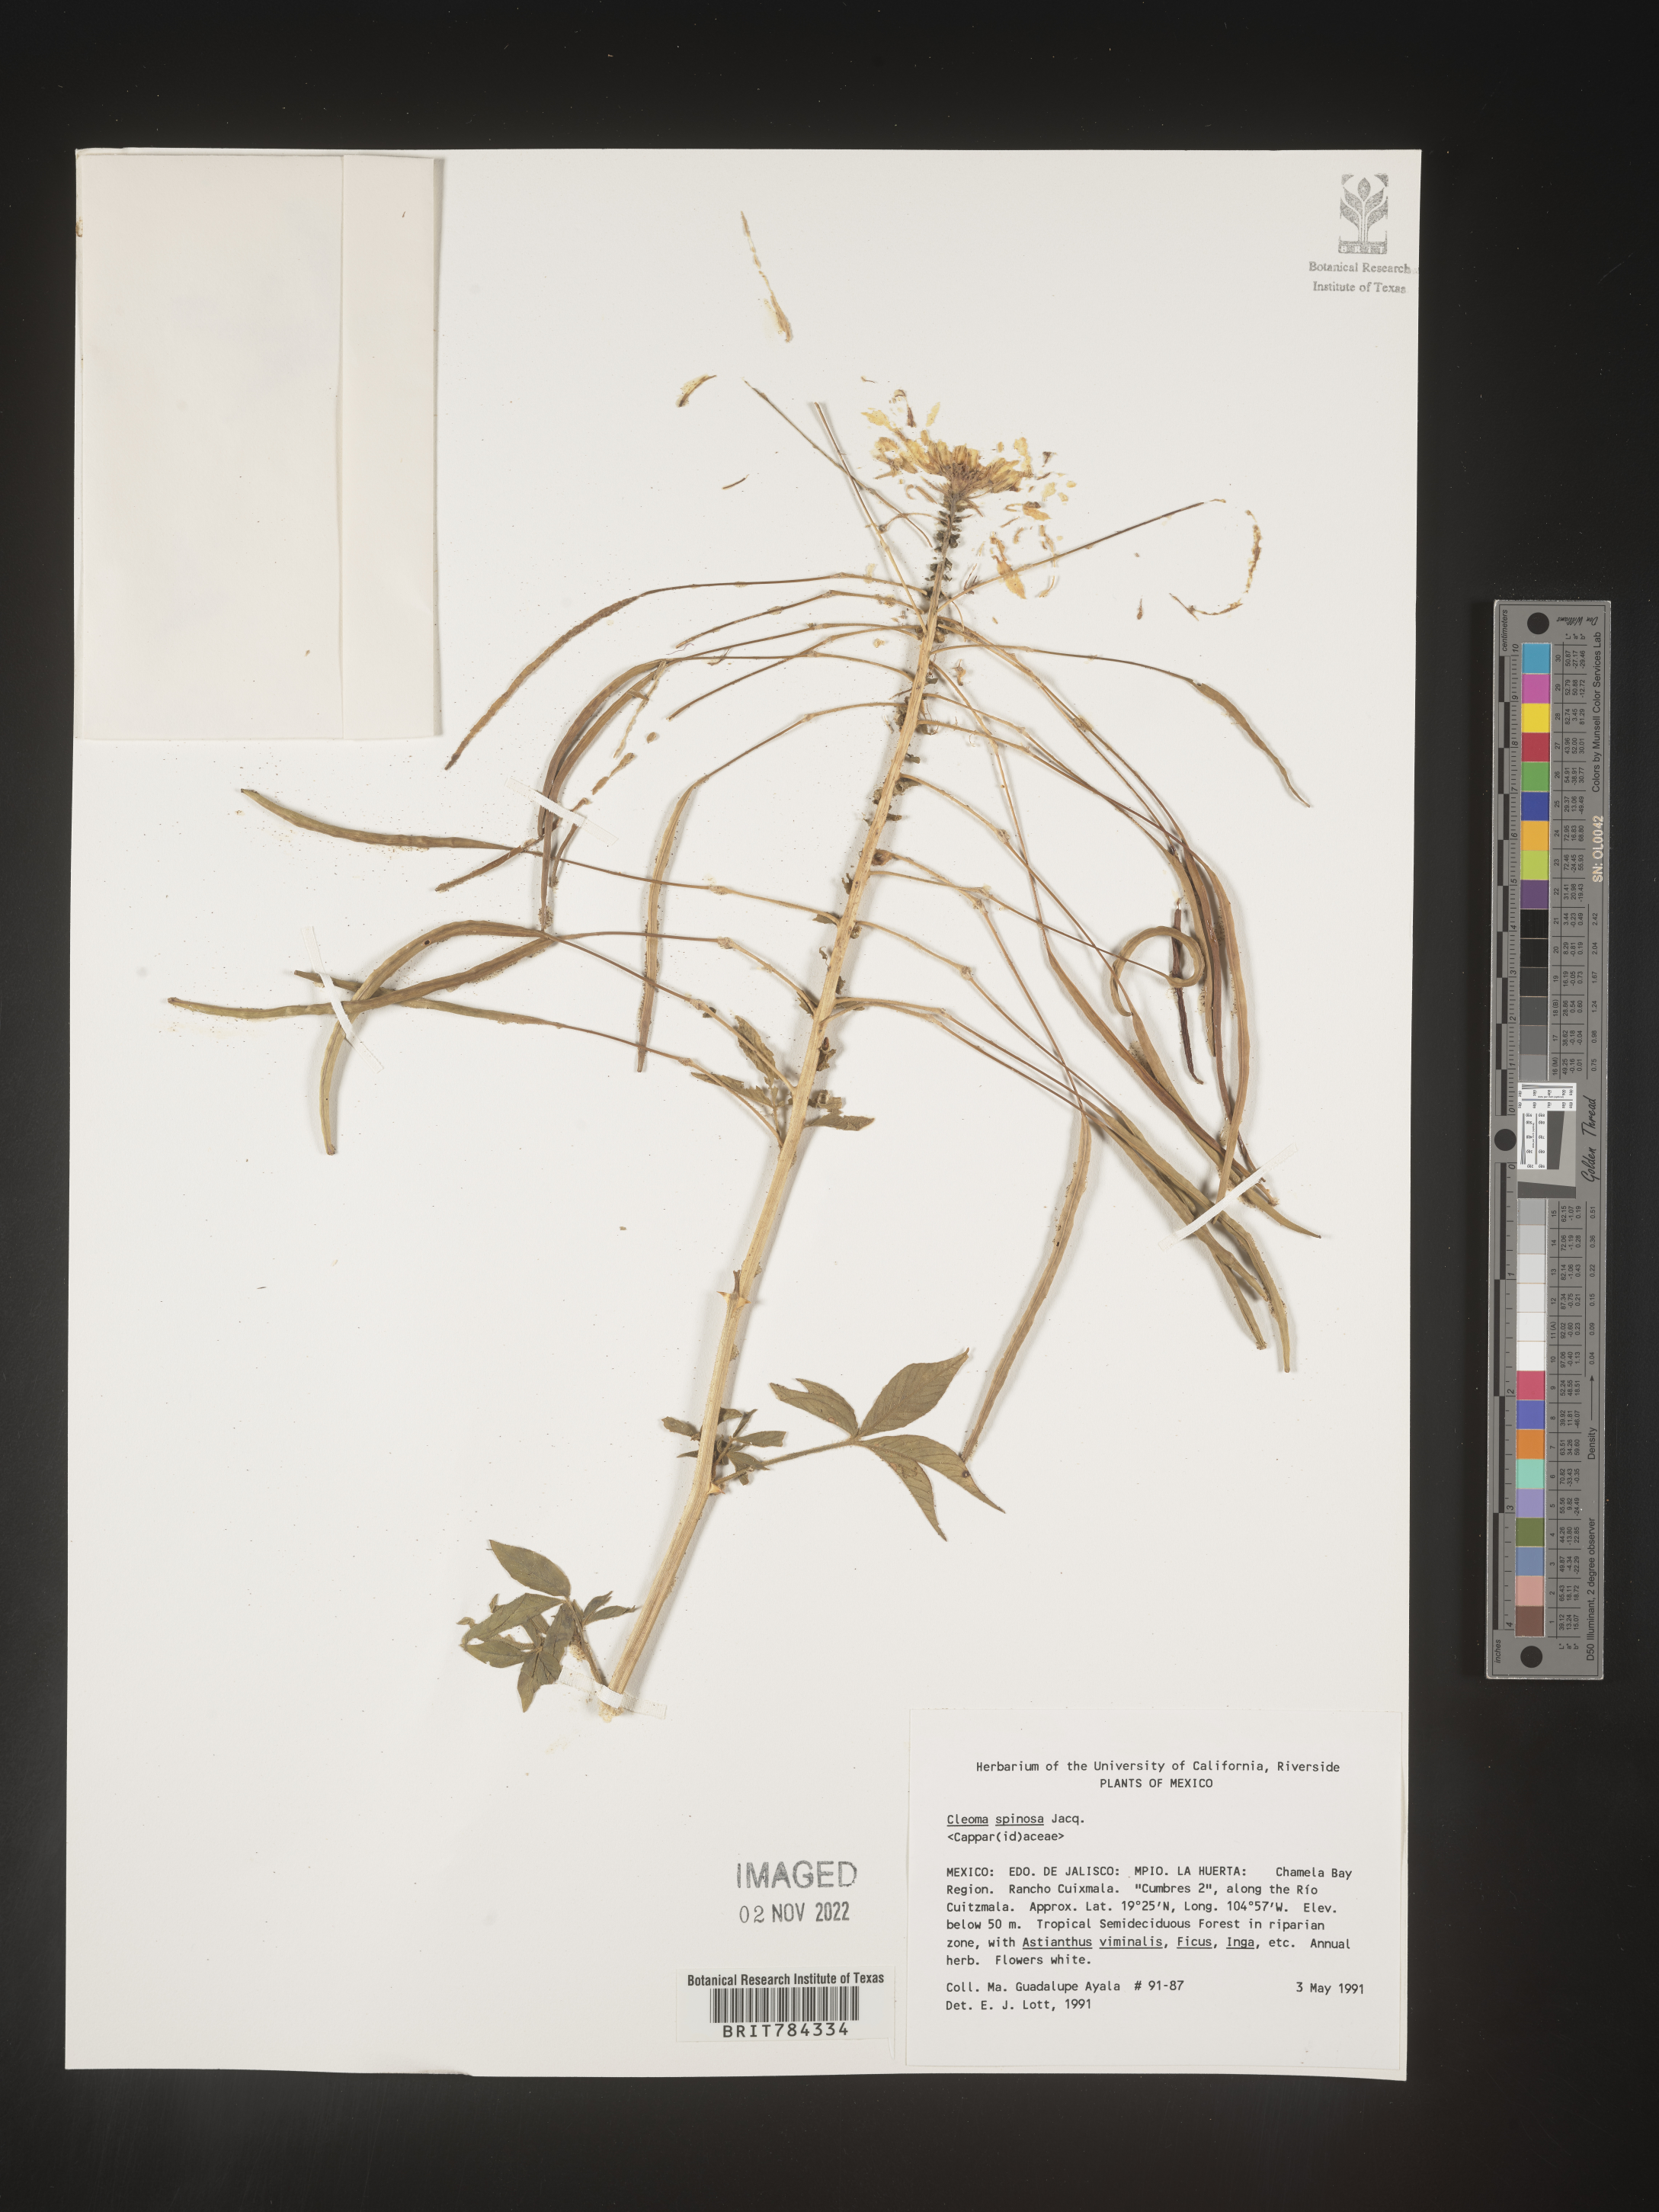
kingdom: Plantae
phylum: Tracheophyta
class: Magnoliopsida
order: Brassicales
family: Cleomaceae
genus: Cleome
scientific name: Cleome
